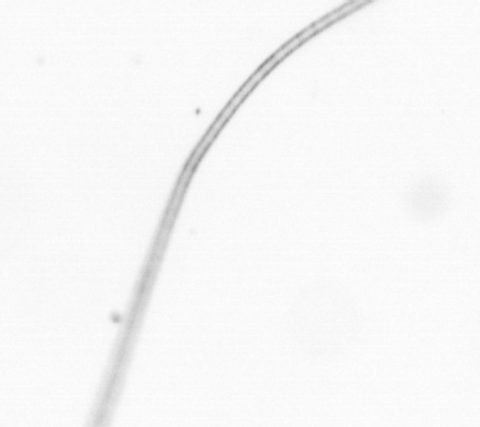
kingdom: Chromista
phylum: Ochrophyta
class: Bacillariophyceae
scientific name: Bacillariophyceae
